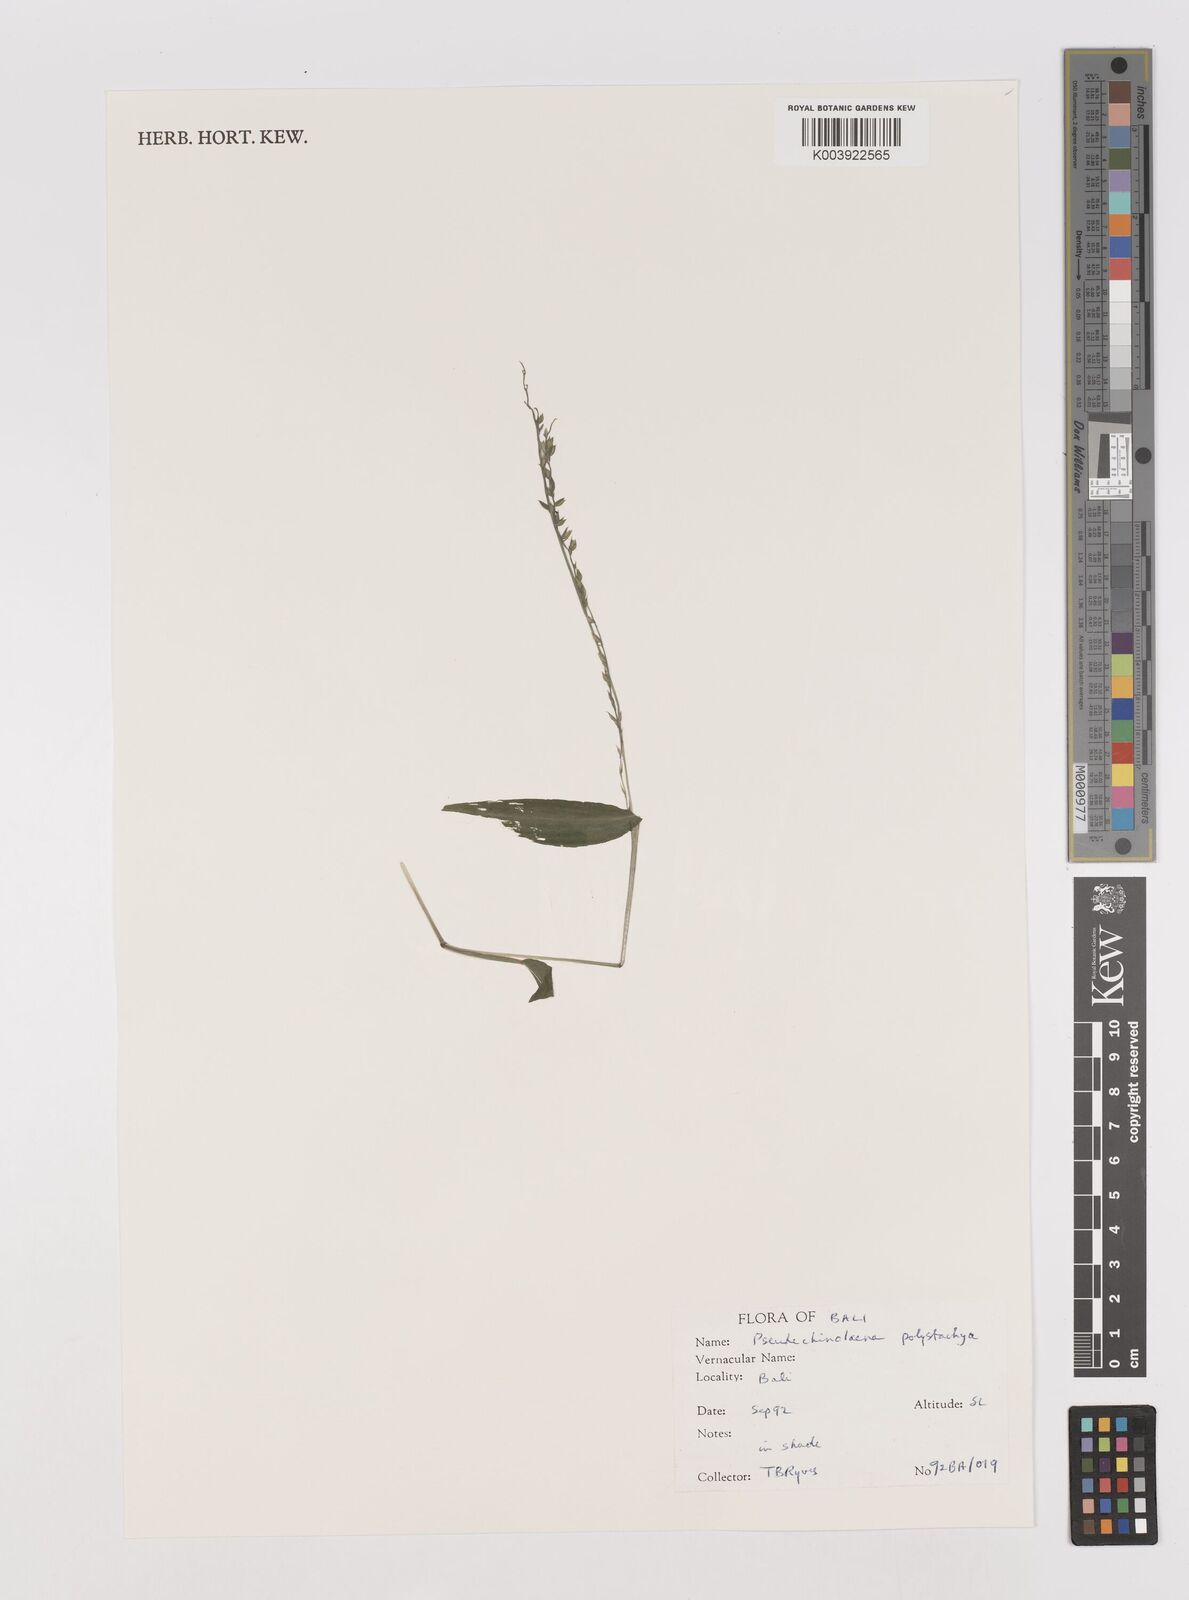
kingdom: Plantae
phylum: Tracheophyta
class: Liliopsida
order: Poales
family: Poaceae
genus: Pseudechinolaena
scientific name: Pseudechinolaena polystachya
